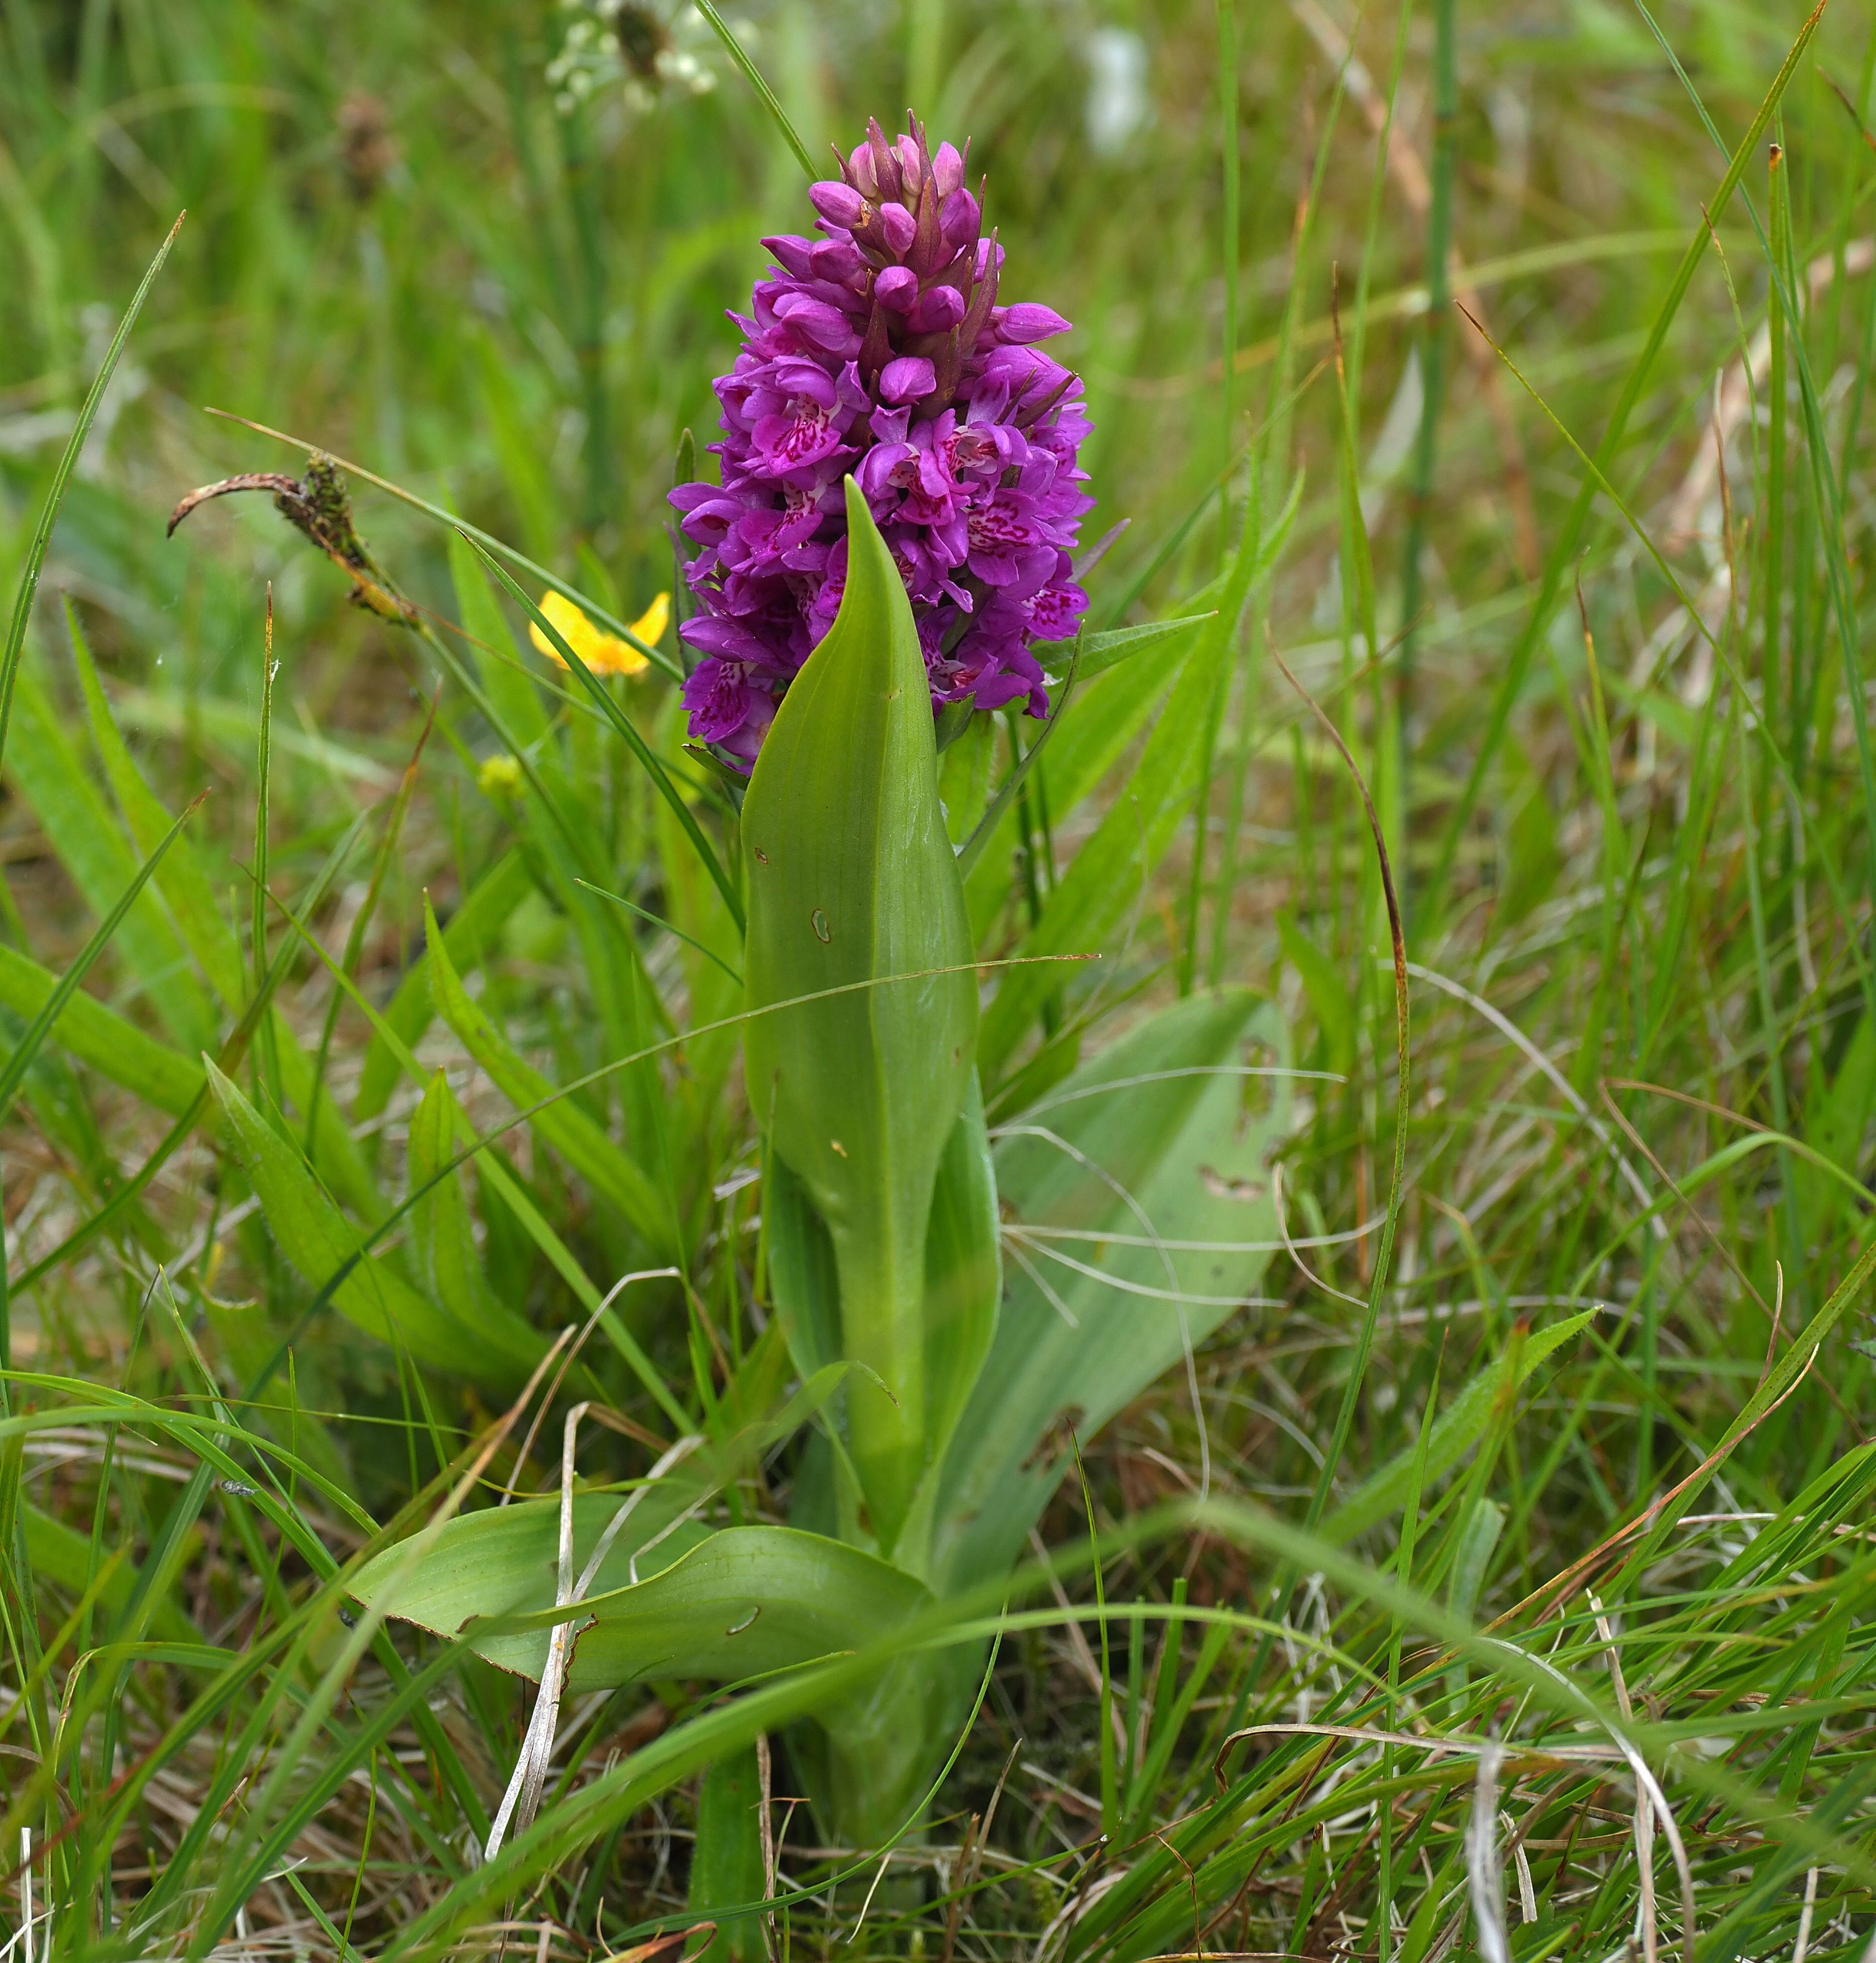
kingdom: Plantae
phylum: Tracheophyta
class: Liliopsida
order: Asparagales
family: Orchidaceae
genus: Dactylorhiza
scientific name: Dactylorhiza majalis
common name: Purpur-gøgeurt
